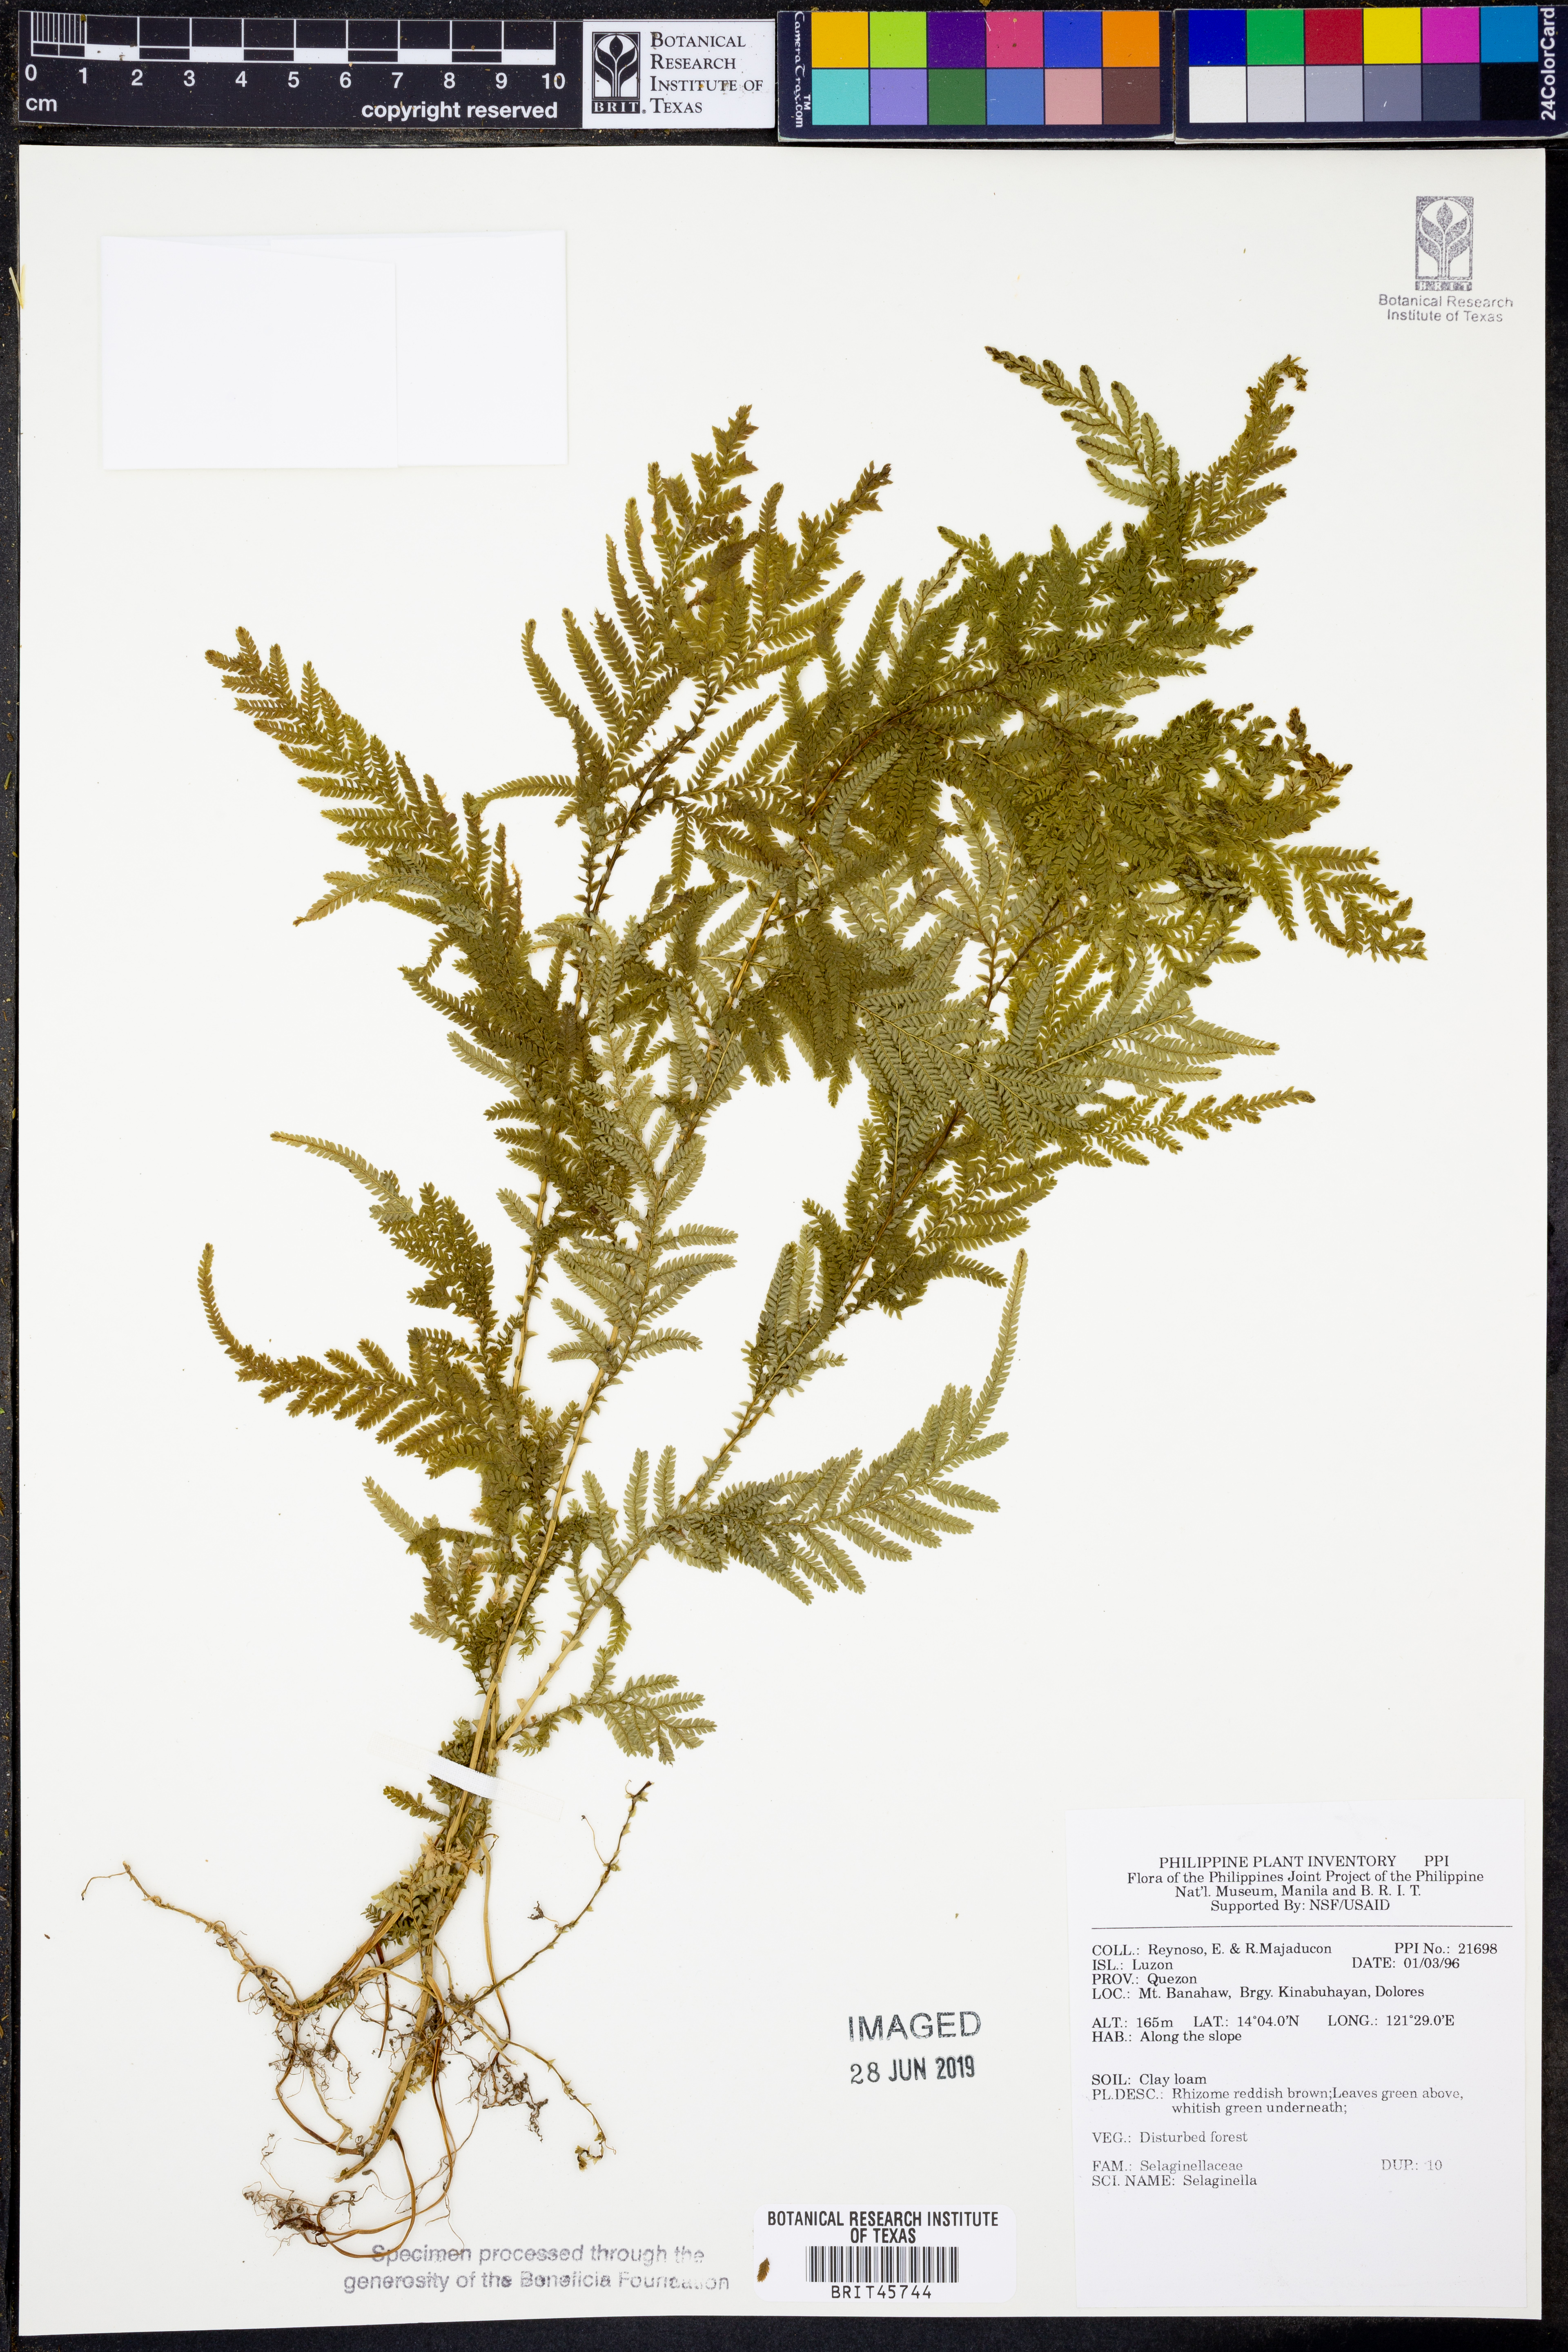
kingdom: Plantae
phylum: Tracheophyta
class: Lycopodiopsida
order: Selaginellales
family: Selaginellaceae
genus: Selaginella
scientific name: Selaginella
